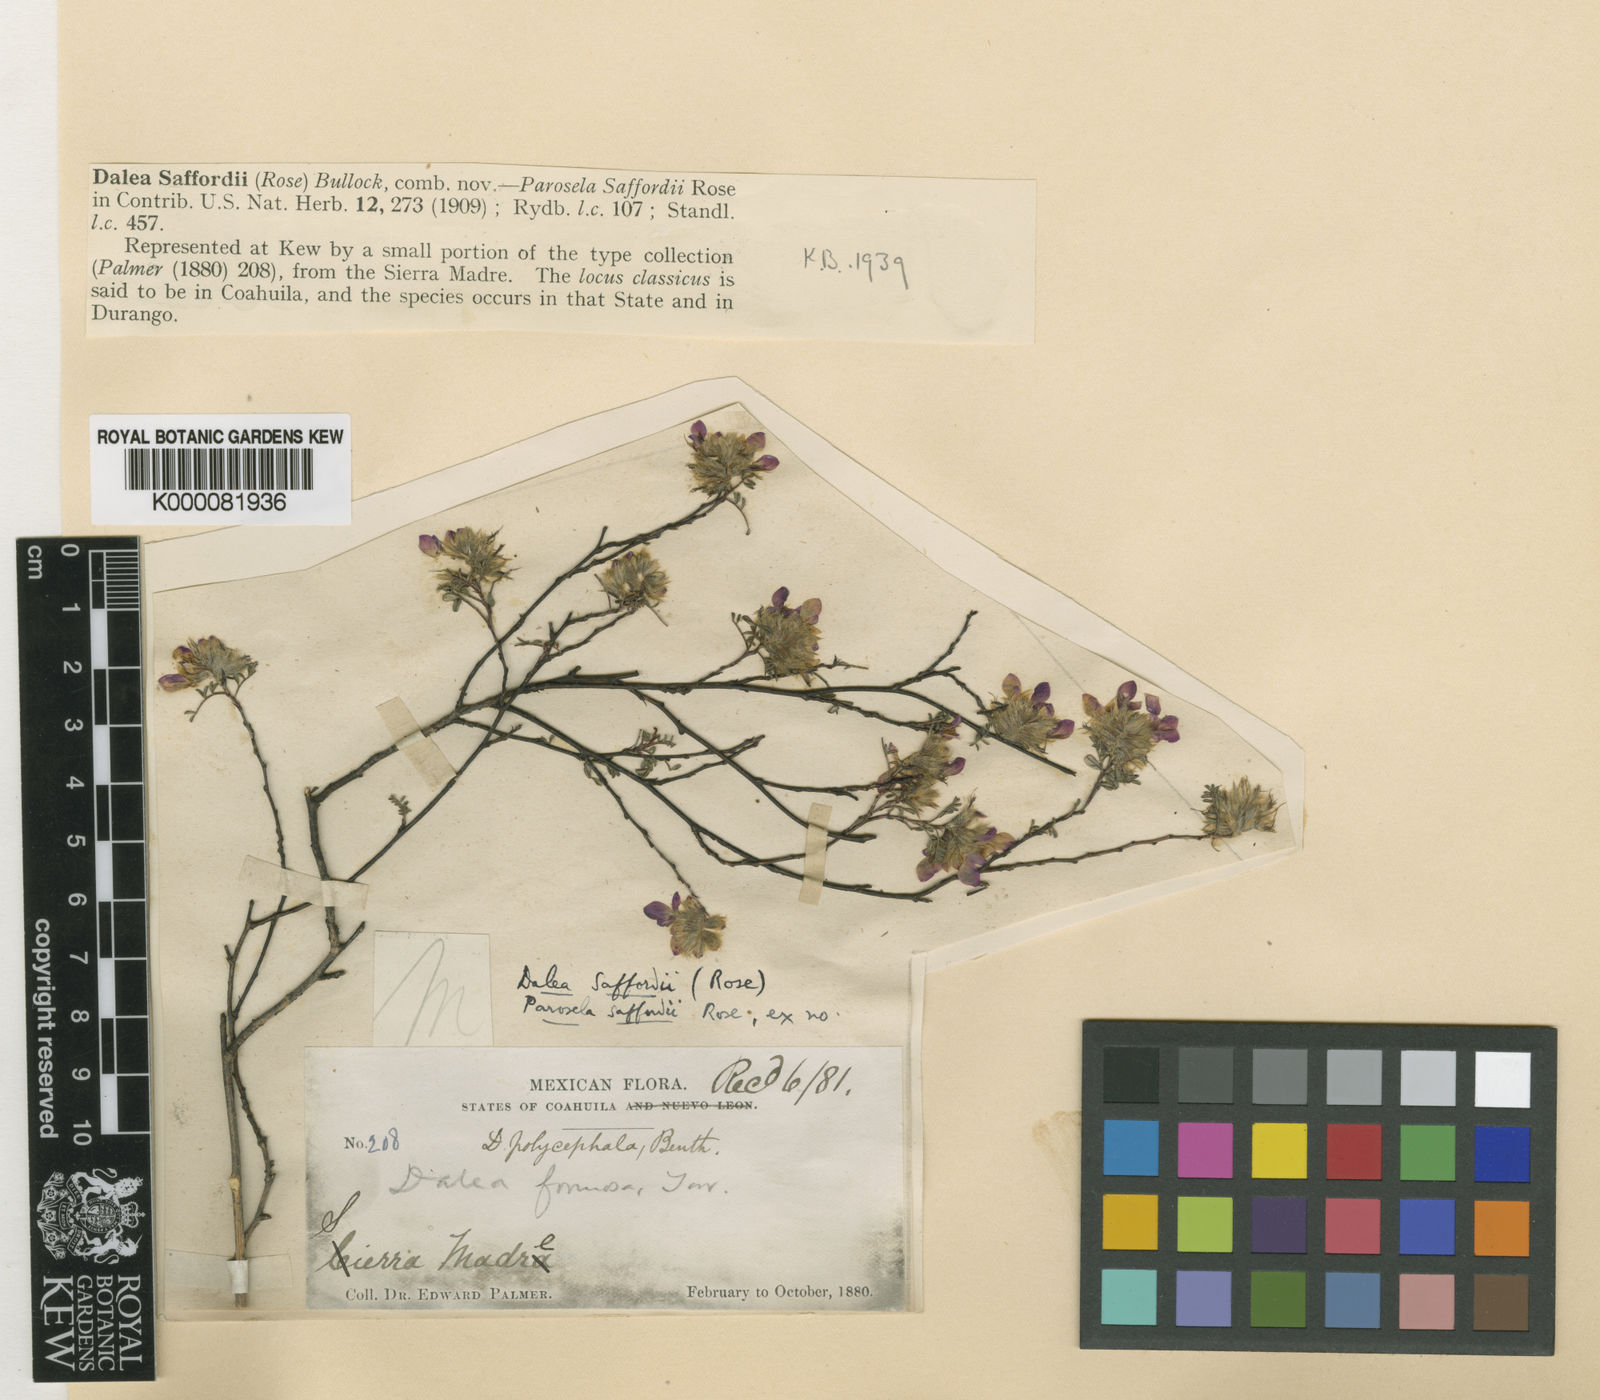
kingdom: Plantae
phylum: Tracheophyta
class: Magnoliopsida
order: Fabales
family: Fabaceae
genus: Dalea
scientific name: Dalea saffordii
